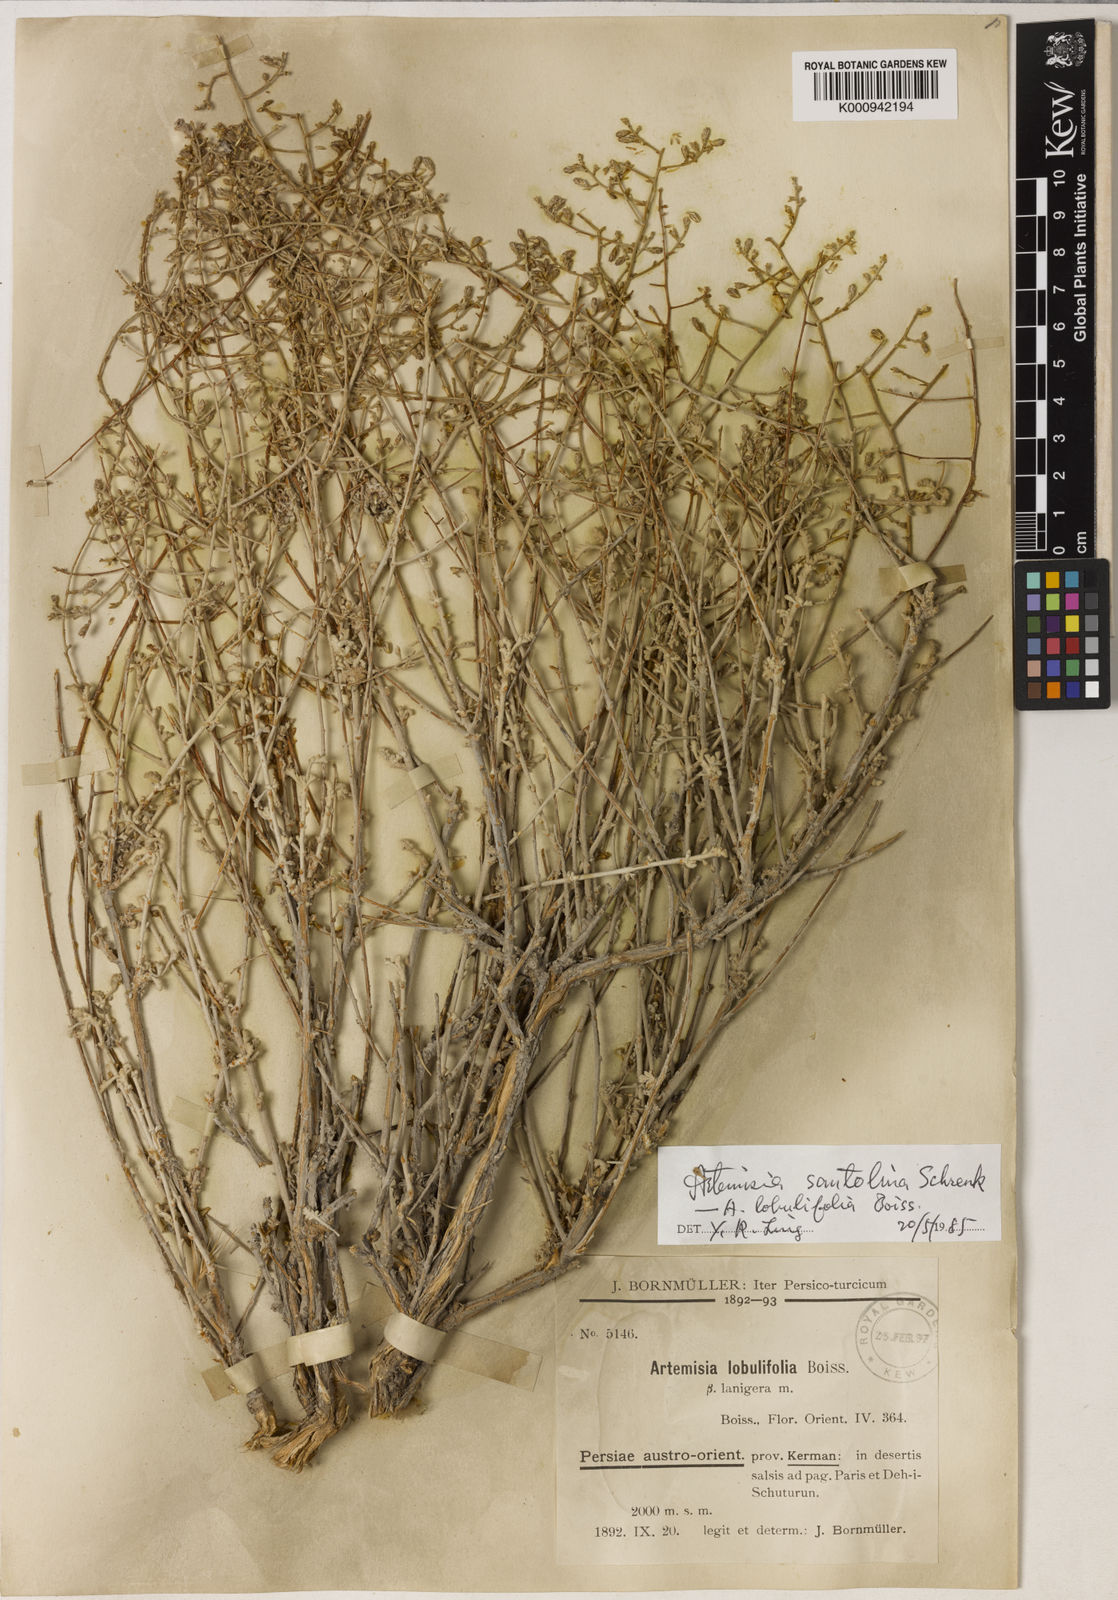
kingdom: Plantae
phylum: Tracheophyta
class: Magnoliopsida
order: Asterales
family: Asteraceae
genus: Artemisia
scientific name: Artemisia santonicum
